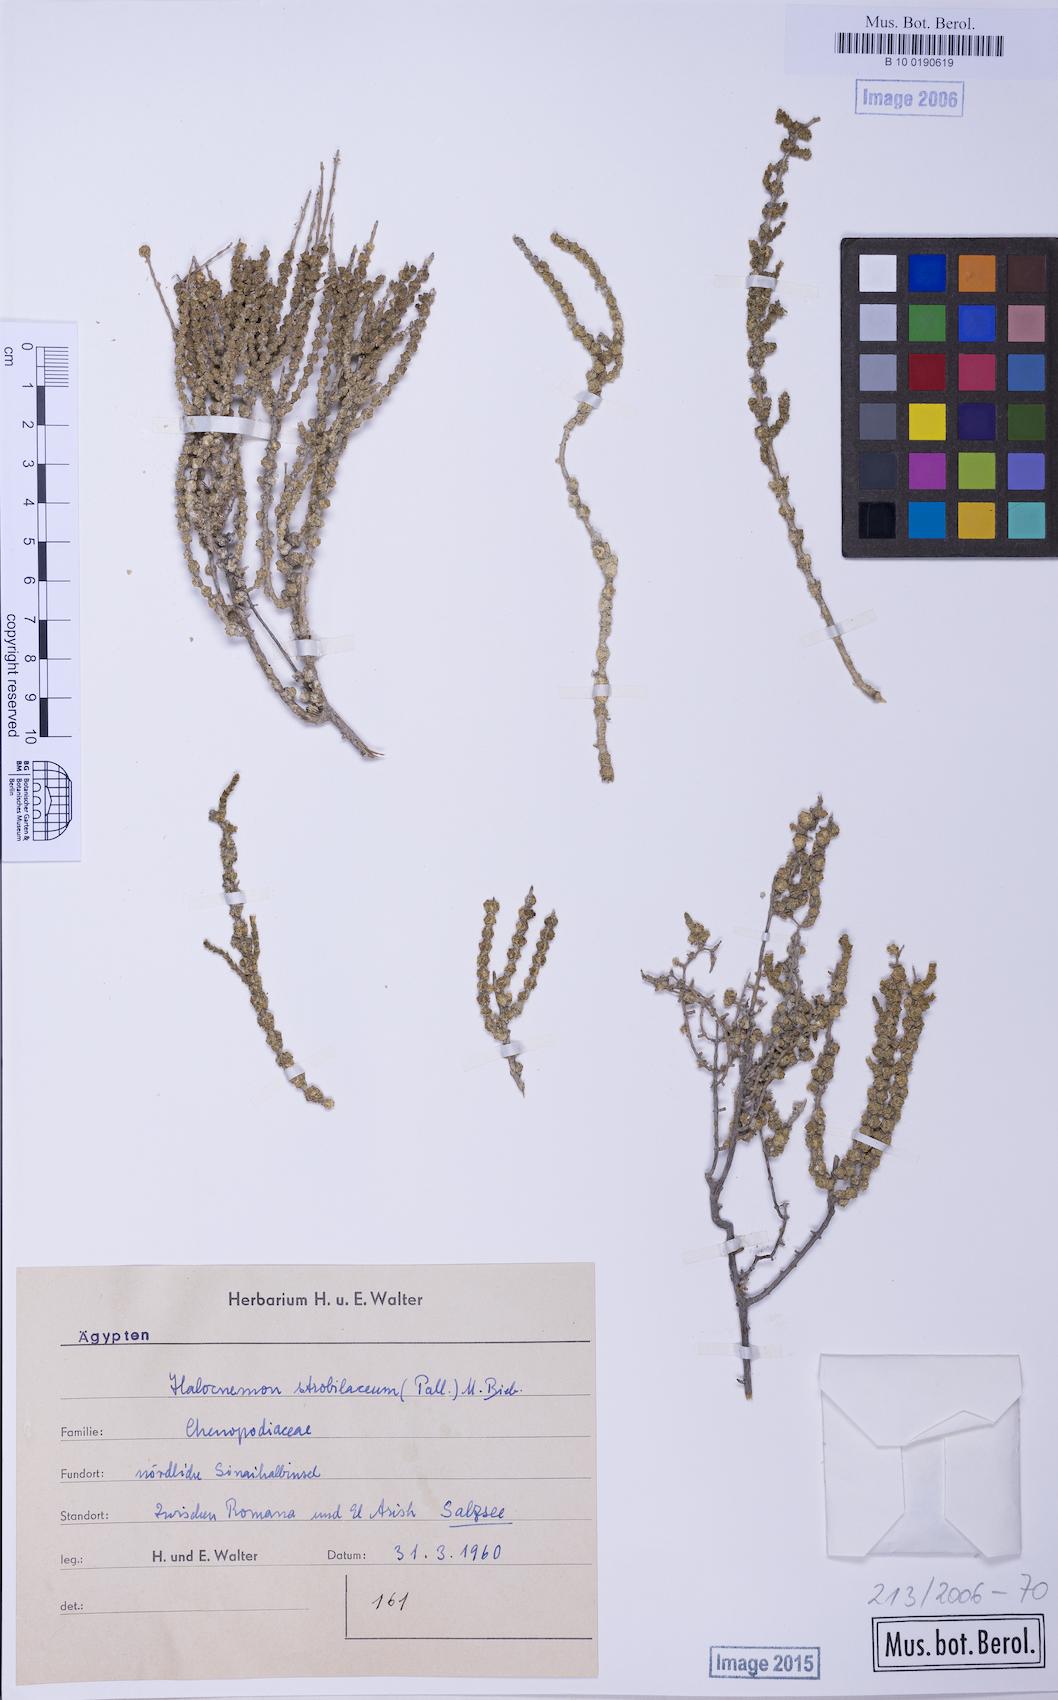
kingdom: Plantae
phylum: Tracheophyta
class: Magnoliopsida
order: Caryophyllales
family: Amaranthaceae
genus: Halocnemum
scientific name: Halocnemum strobilaceum
